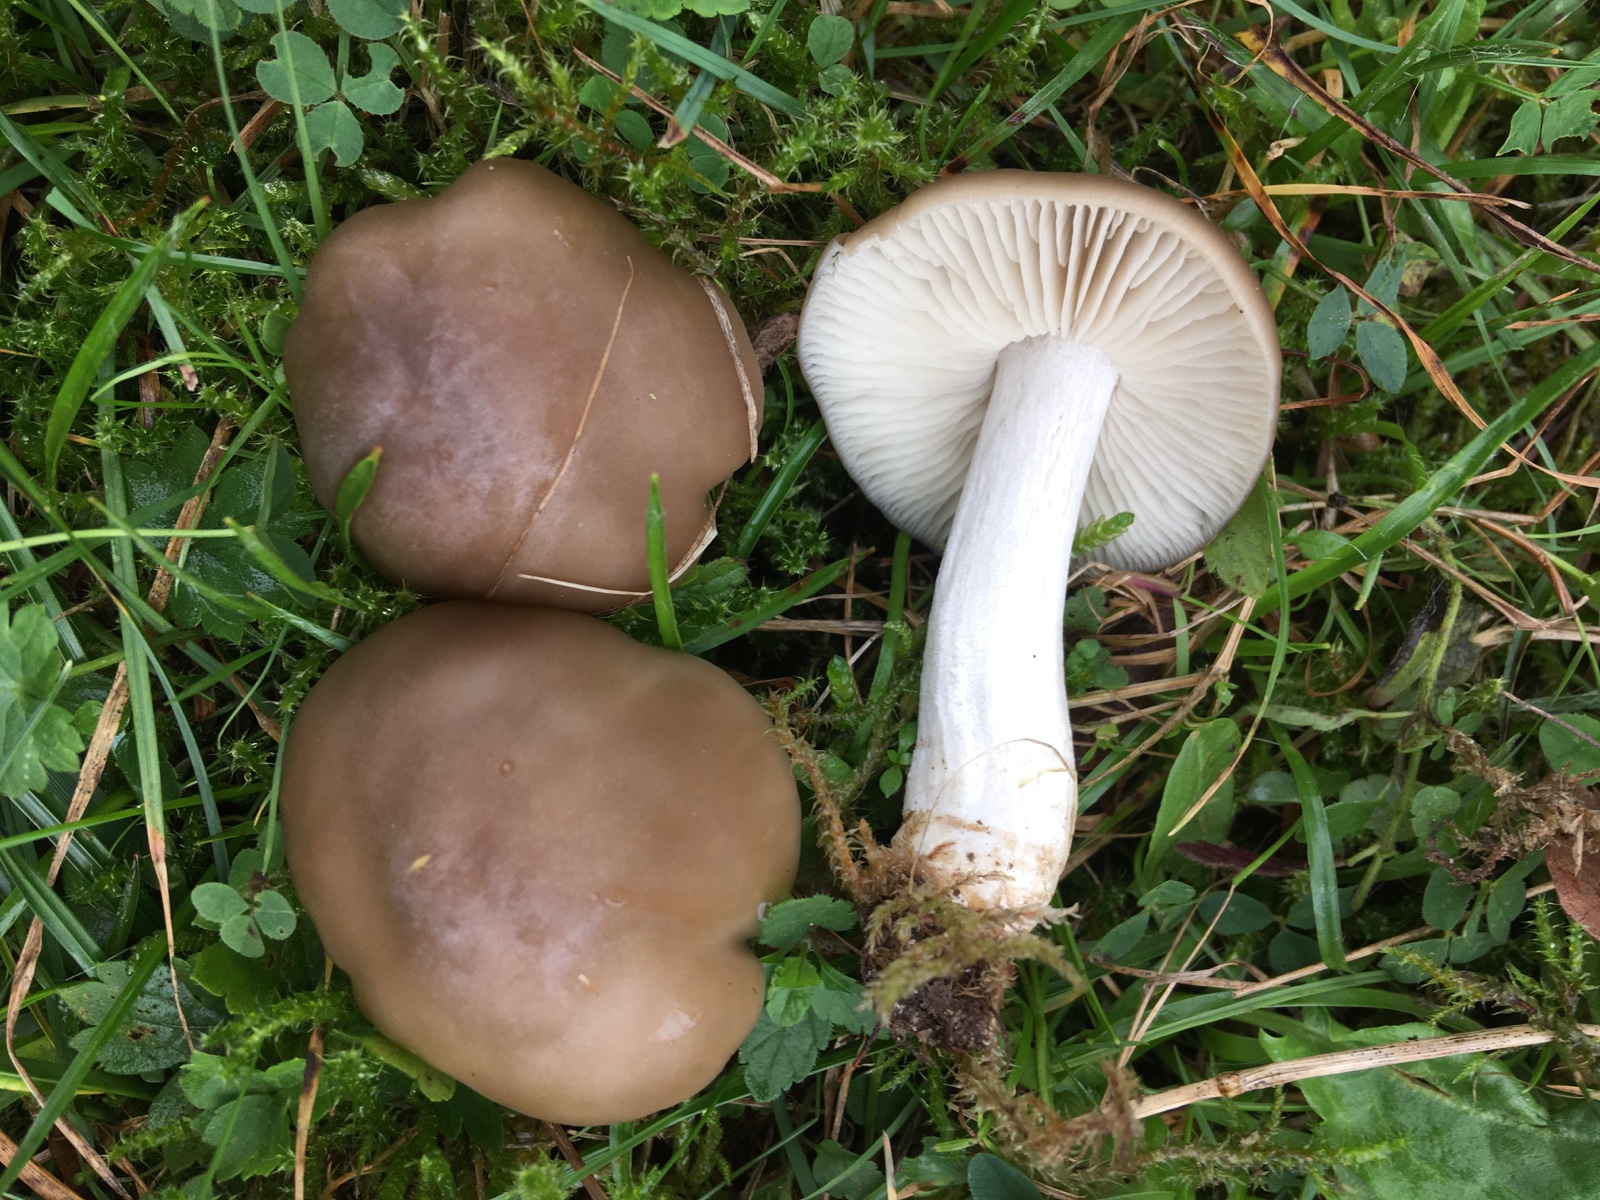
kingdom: Fungi
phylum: Basidiomycota
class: Agaricomycetes
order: Agaricales
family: Entolomataceae
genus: Entoloma
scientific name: Entoloma lividoalbum
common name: lysstokket rødblad
